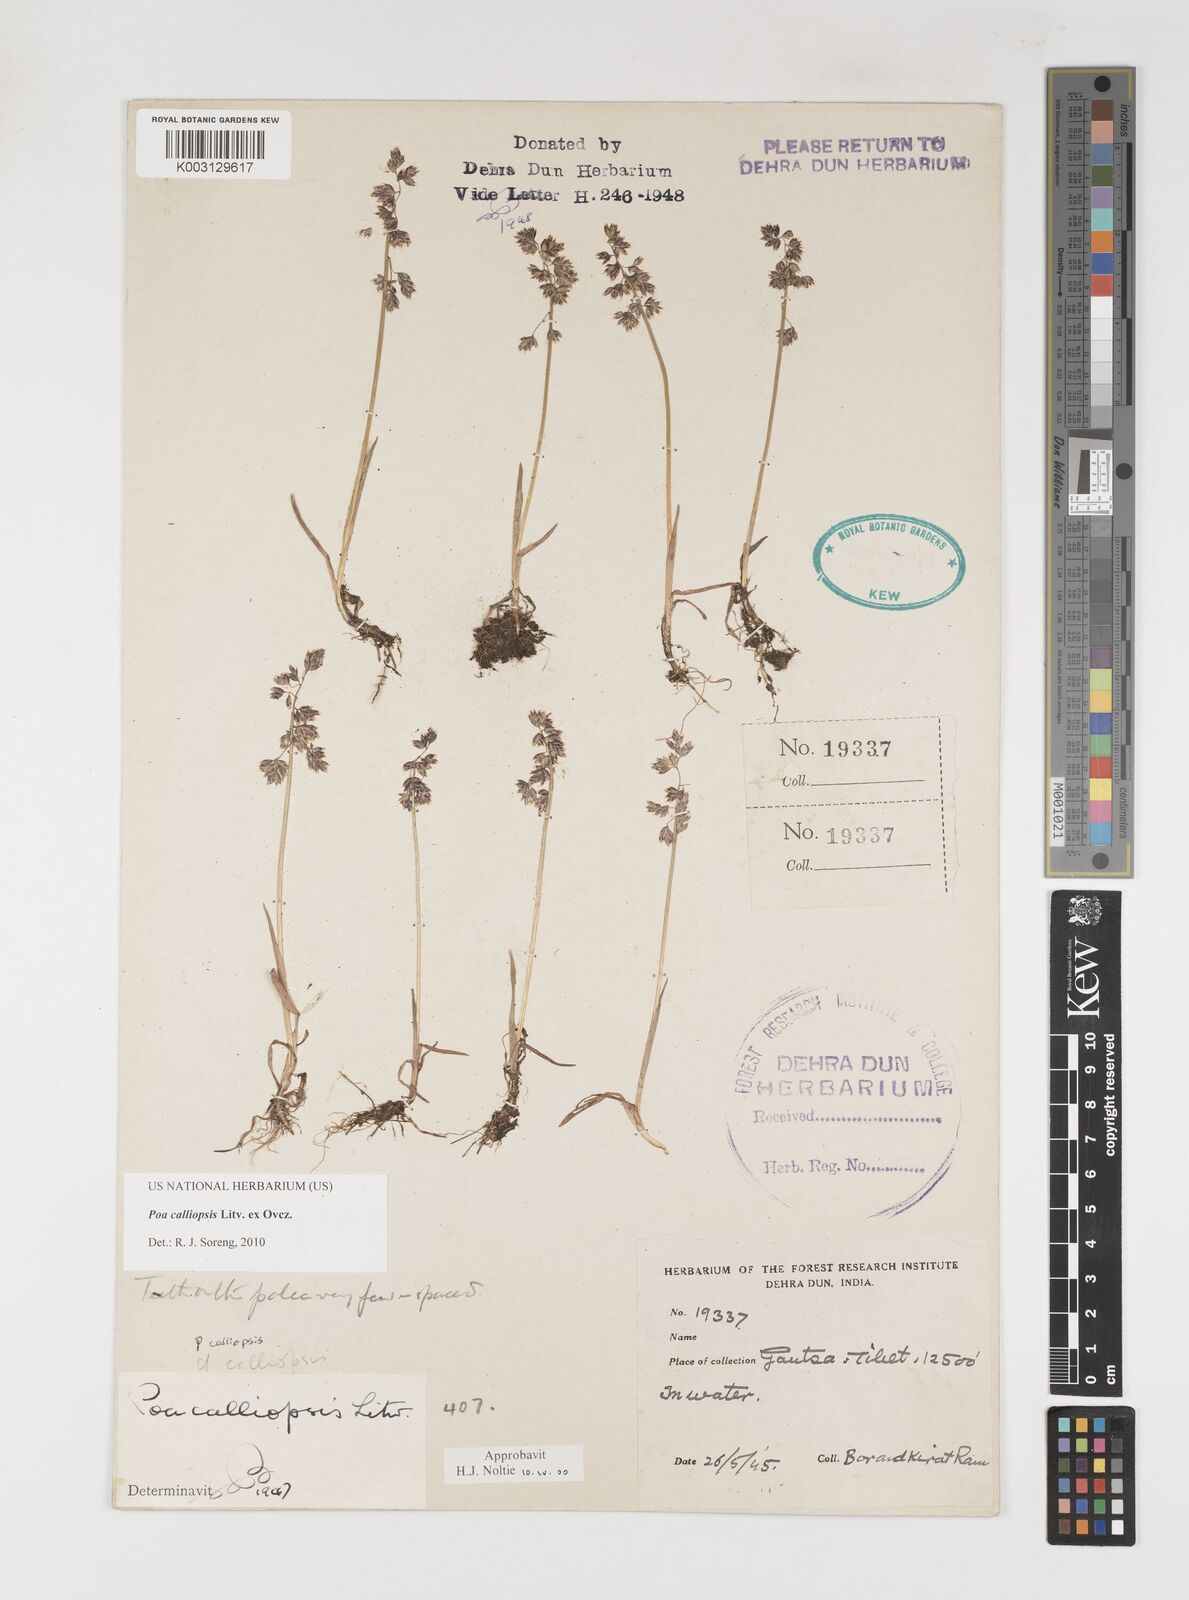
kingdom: Plantae
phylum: Tracheophyta
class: Liliopsida
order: Poales
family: Poaceae
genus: Poa
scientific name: Poa calliopsis
